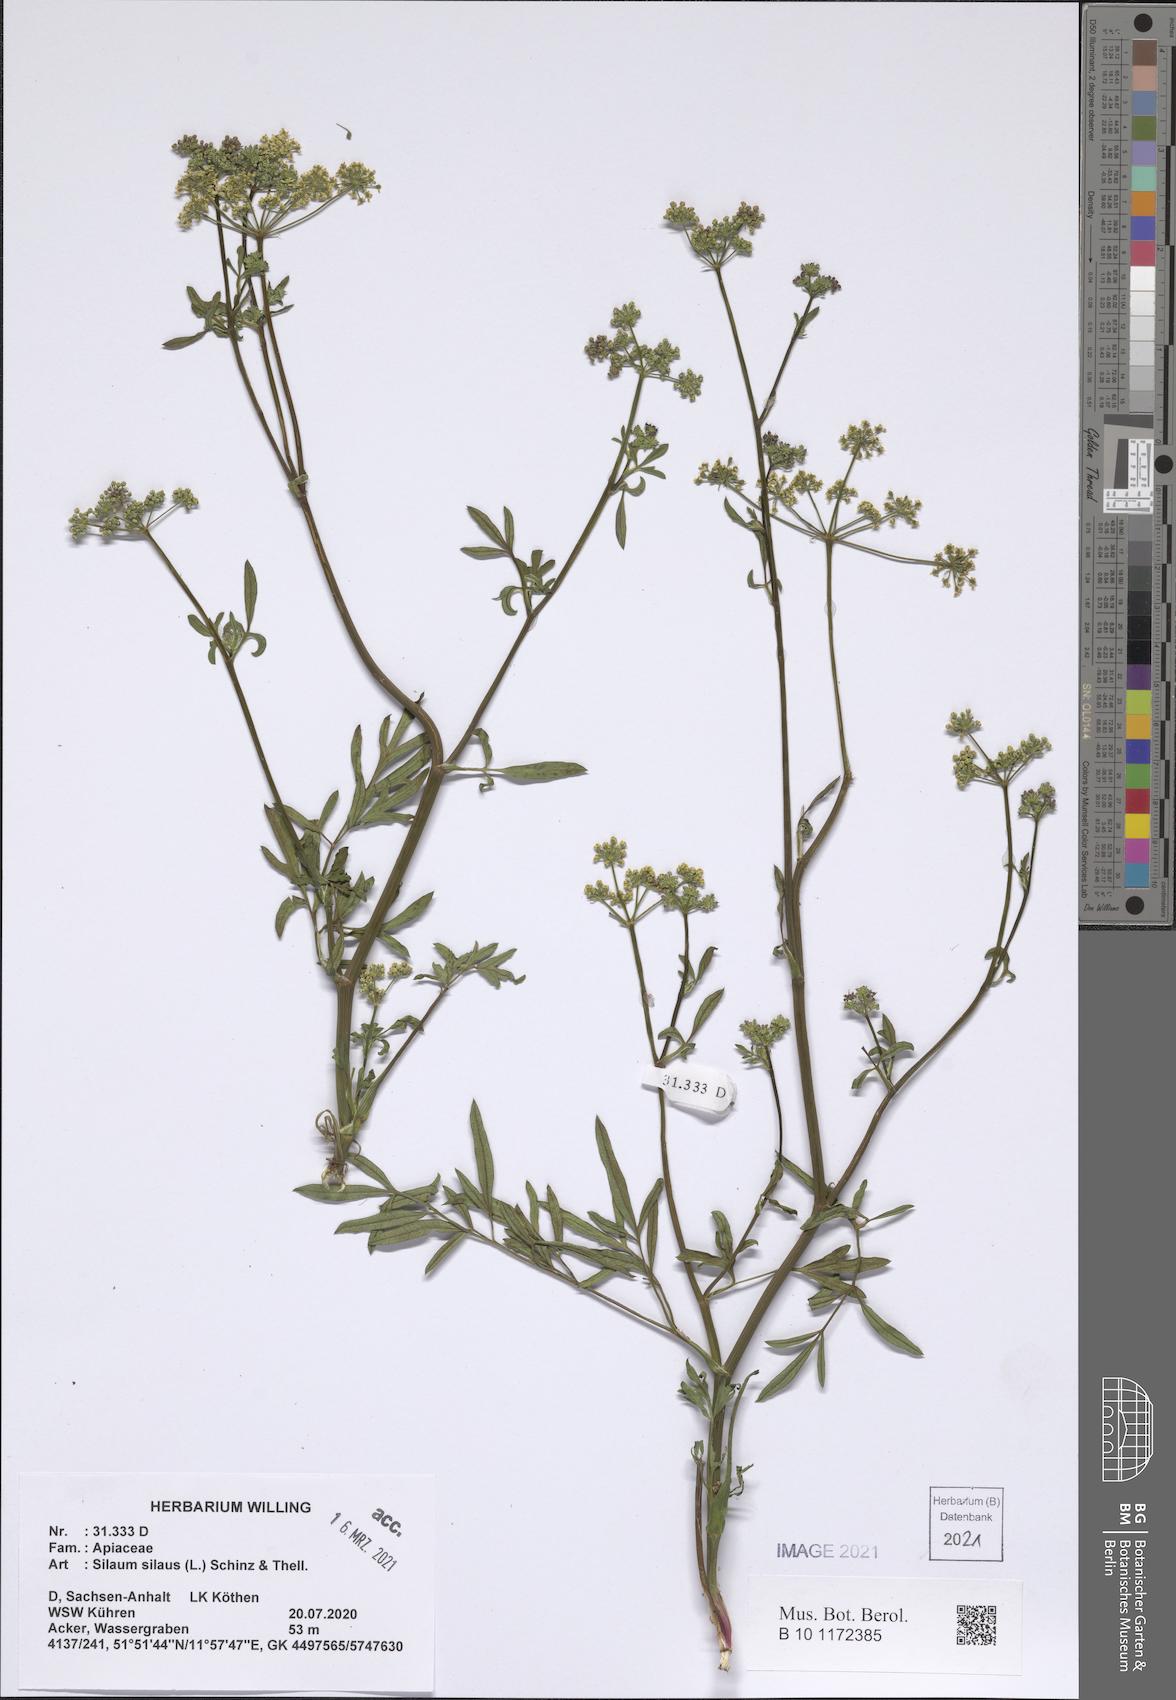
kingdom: Plantae
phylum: Tracheophyta
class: Magnoliopsida
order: Apiales
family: Apiaceae
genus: Silaum
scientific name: Silaum silaus
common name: Pepper-saxifrage
